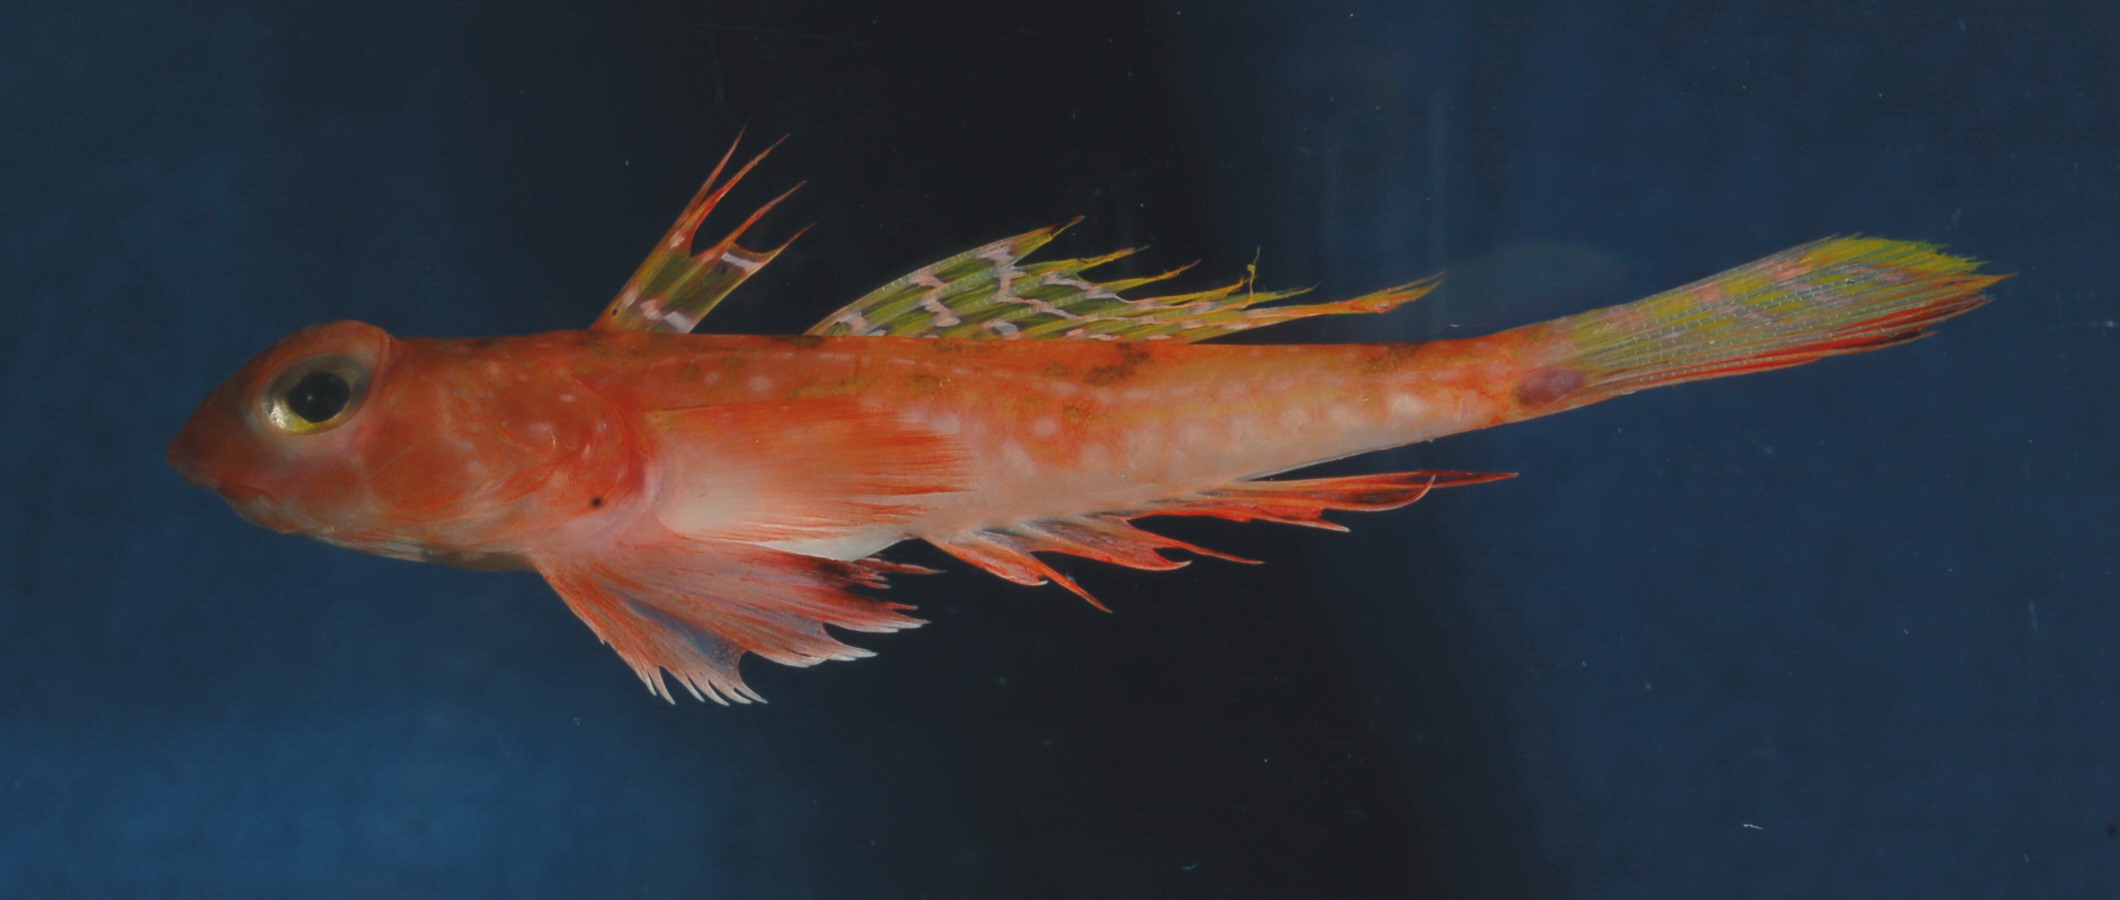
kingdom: Animalia
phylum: Chordata
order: Perciformes
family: Callionymidae
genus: Synchiropus
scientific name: Synchiropus monacanthus
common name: Deep-water dragonet
